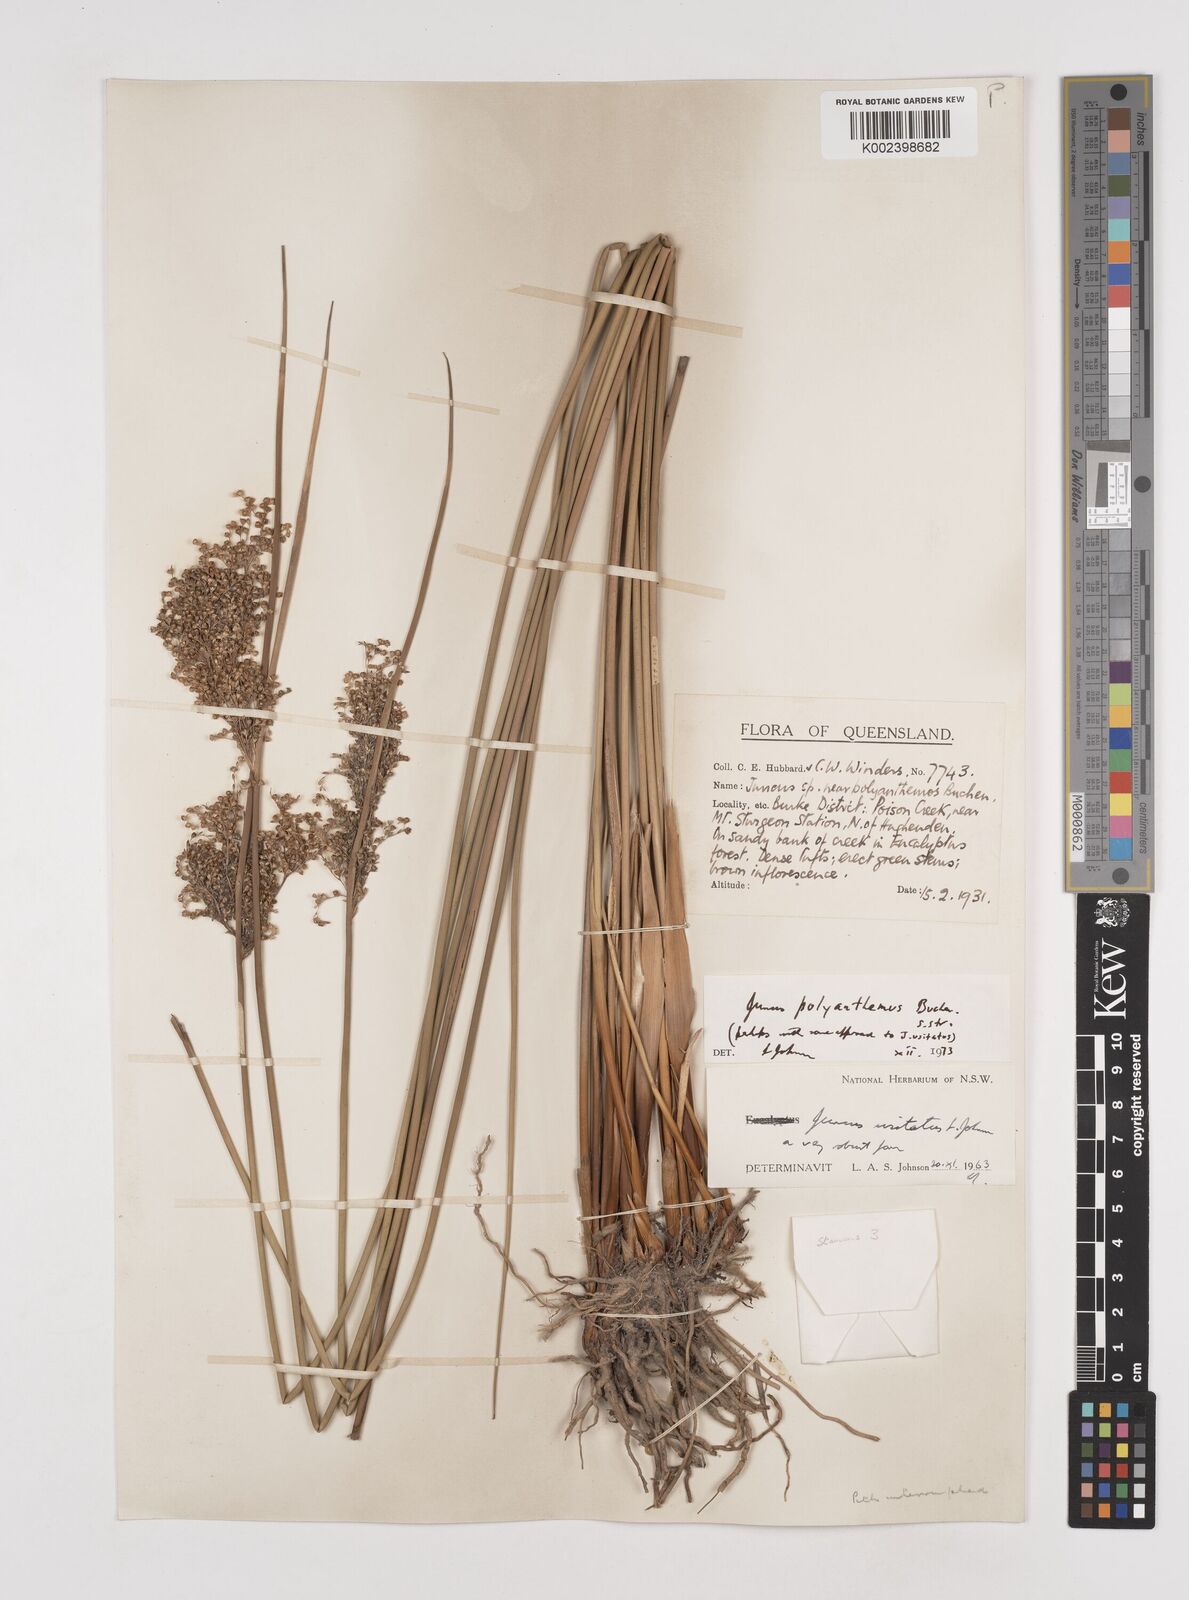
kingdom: Plantae
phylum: Tracheophyta
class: Liliopsida
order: Poales
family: Juncaceae
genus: Juncus
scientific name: Juncus polyanthemus
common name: Manyflower rush
